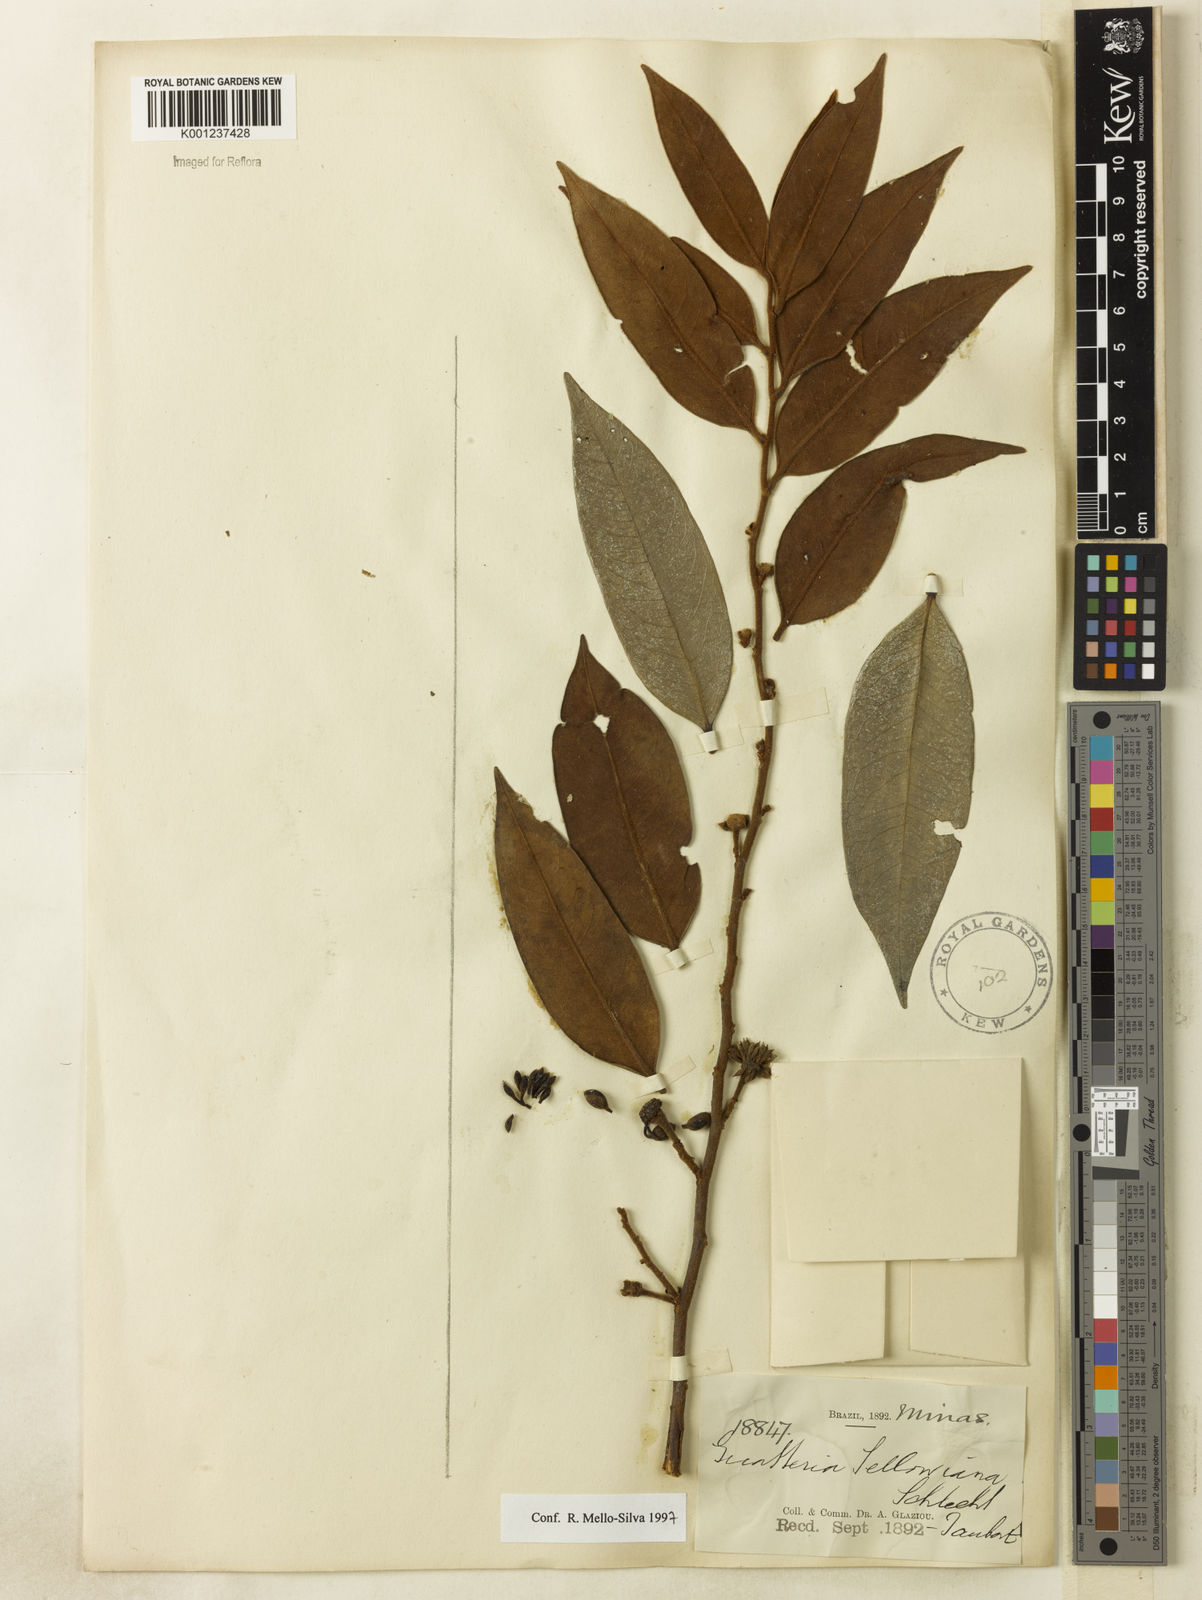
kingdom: Plantae
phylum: Tracheophyta
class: Magnoliopsida
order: Magnoliales
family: Annonaceae
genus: Guatteria
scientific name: Guatteria sellowiana
